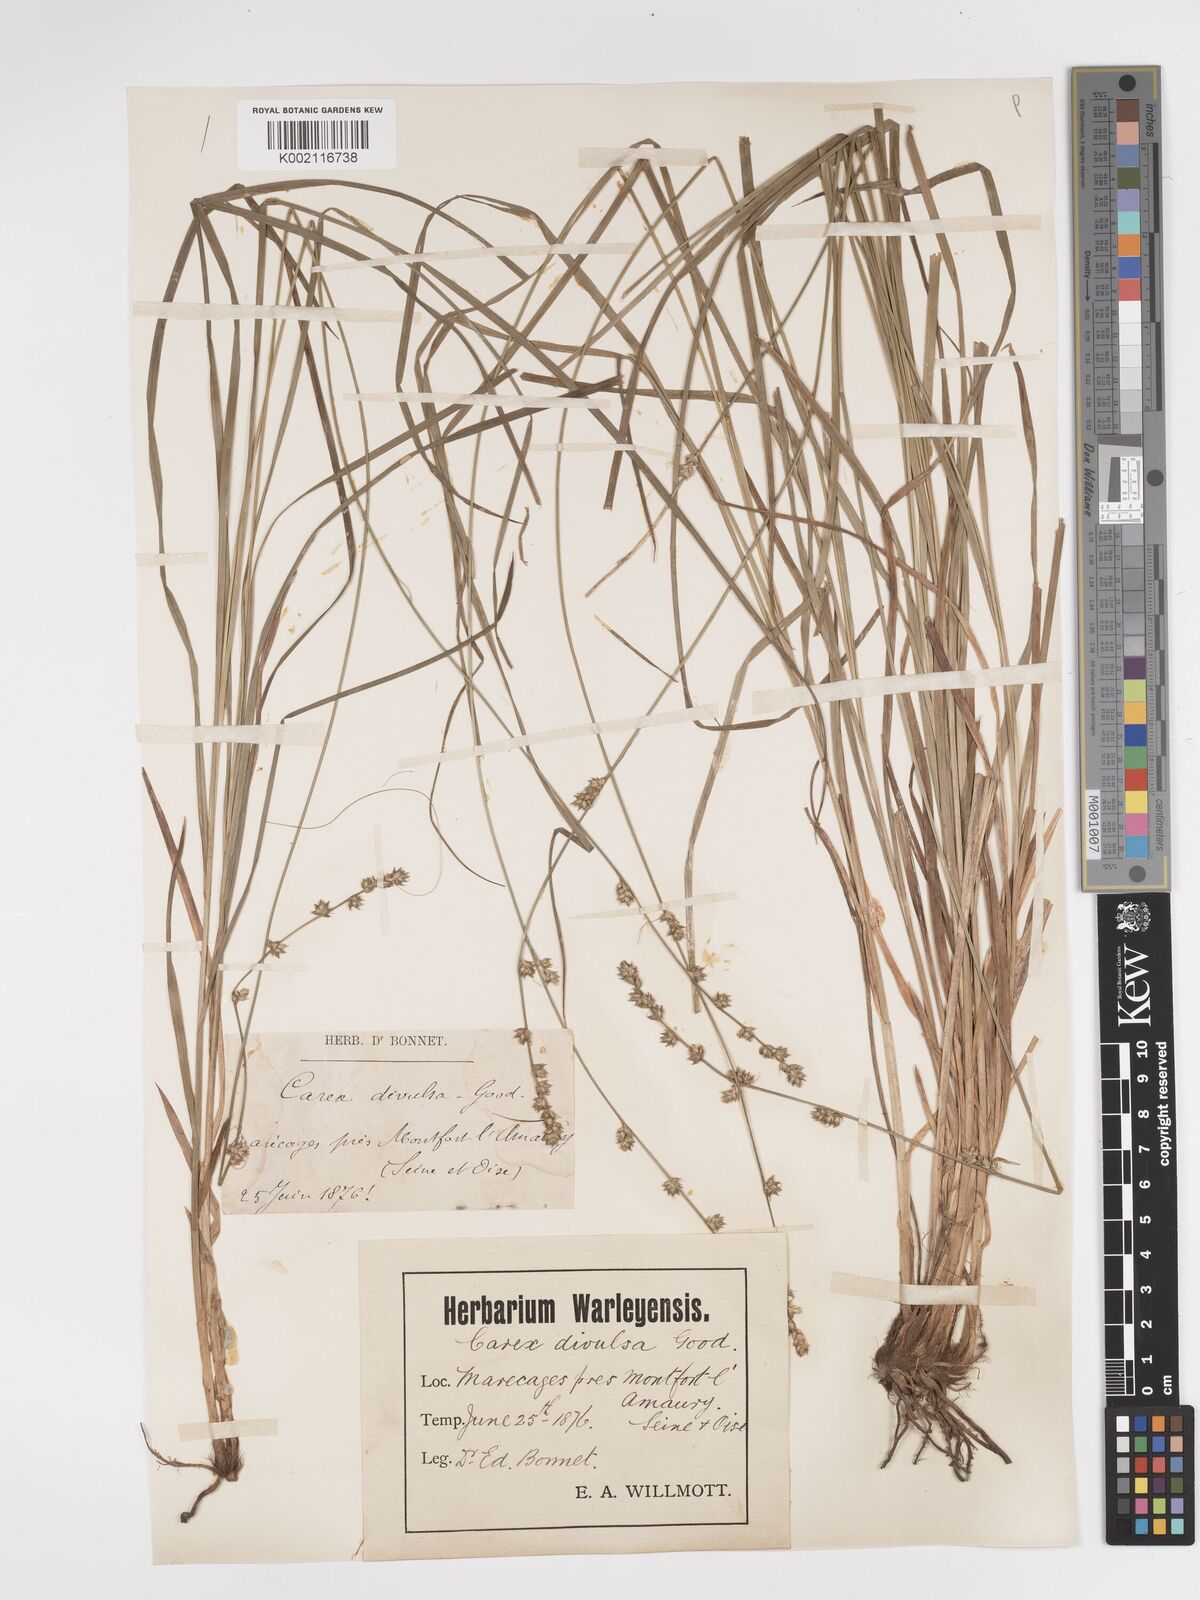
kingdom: Plantae
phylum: Tracheophyta
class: Liliopsida
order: Poales
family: Cyperaceae
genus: Carex
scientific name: Carex divulsa
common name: Grassland sedge
